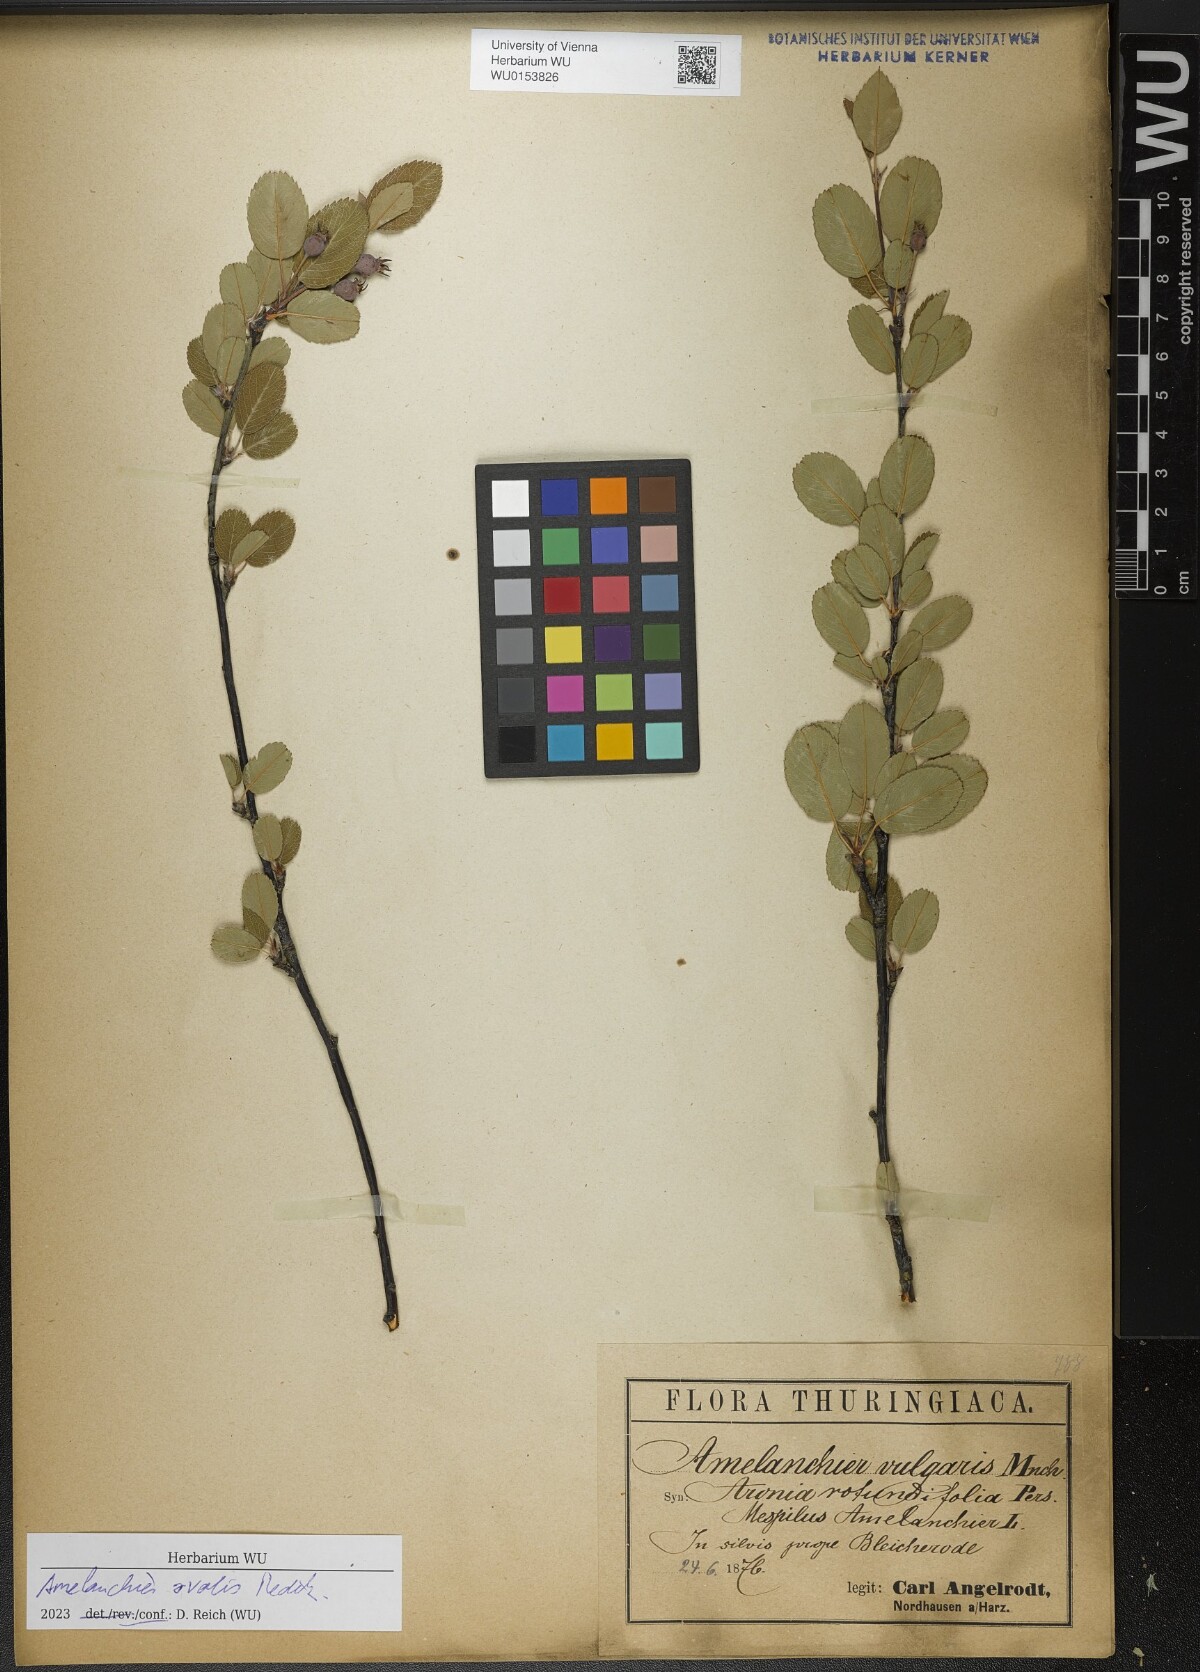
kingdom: Plantae
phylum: Tracheophyta
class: Magnoliopsida
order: Rosales
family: Rosaceae
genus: Amelanchier
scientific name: Amelanchier ovalis
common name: Serviceberry
